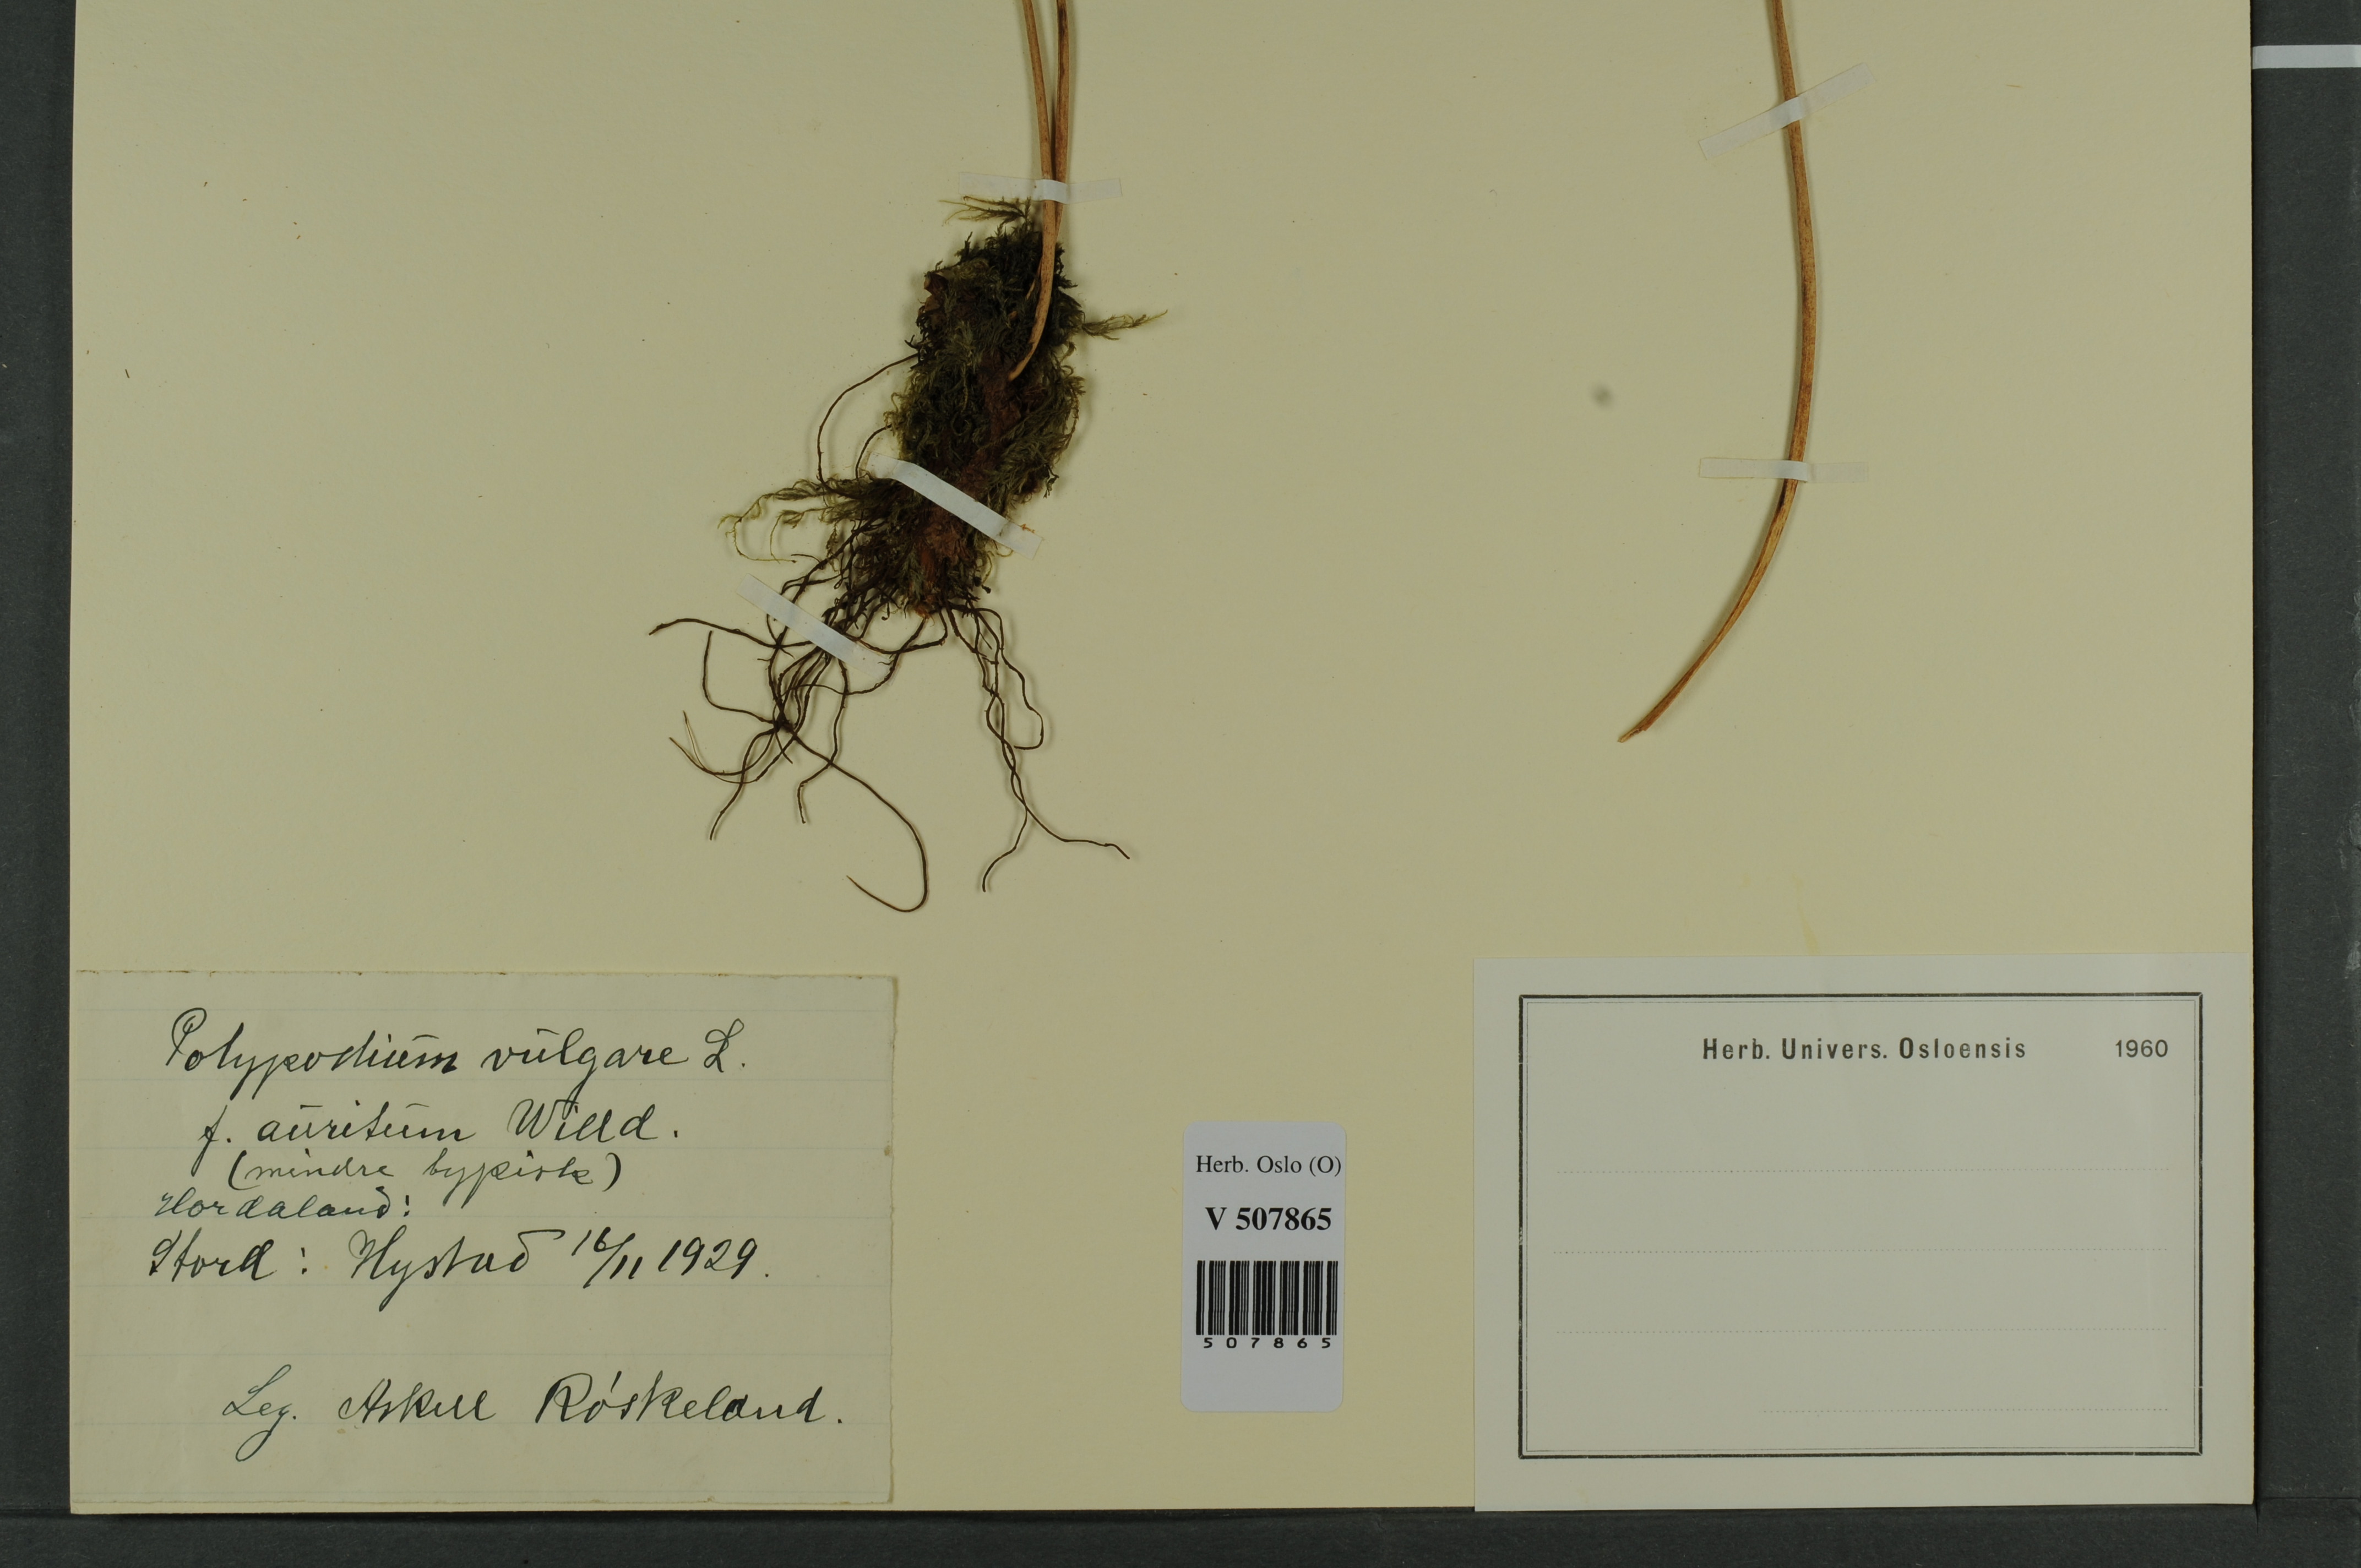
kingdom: Plantae
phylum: Tracheophyta
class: Polypodiopsida
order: Polypodiales
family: Polypodiaceae
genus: Polypodium
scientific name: Polypodium vulgare
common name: Common polypody
